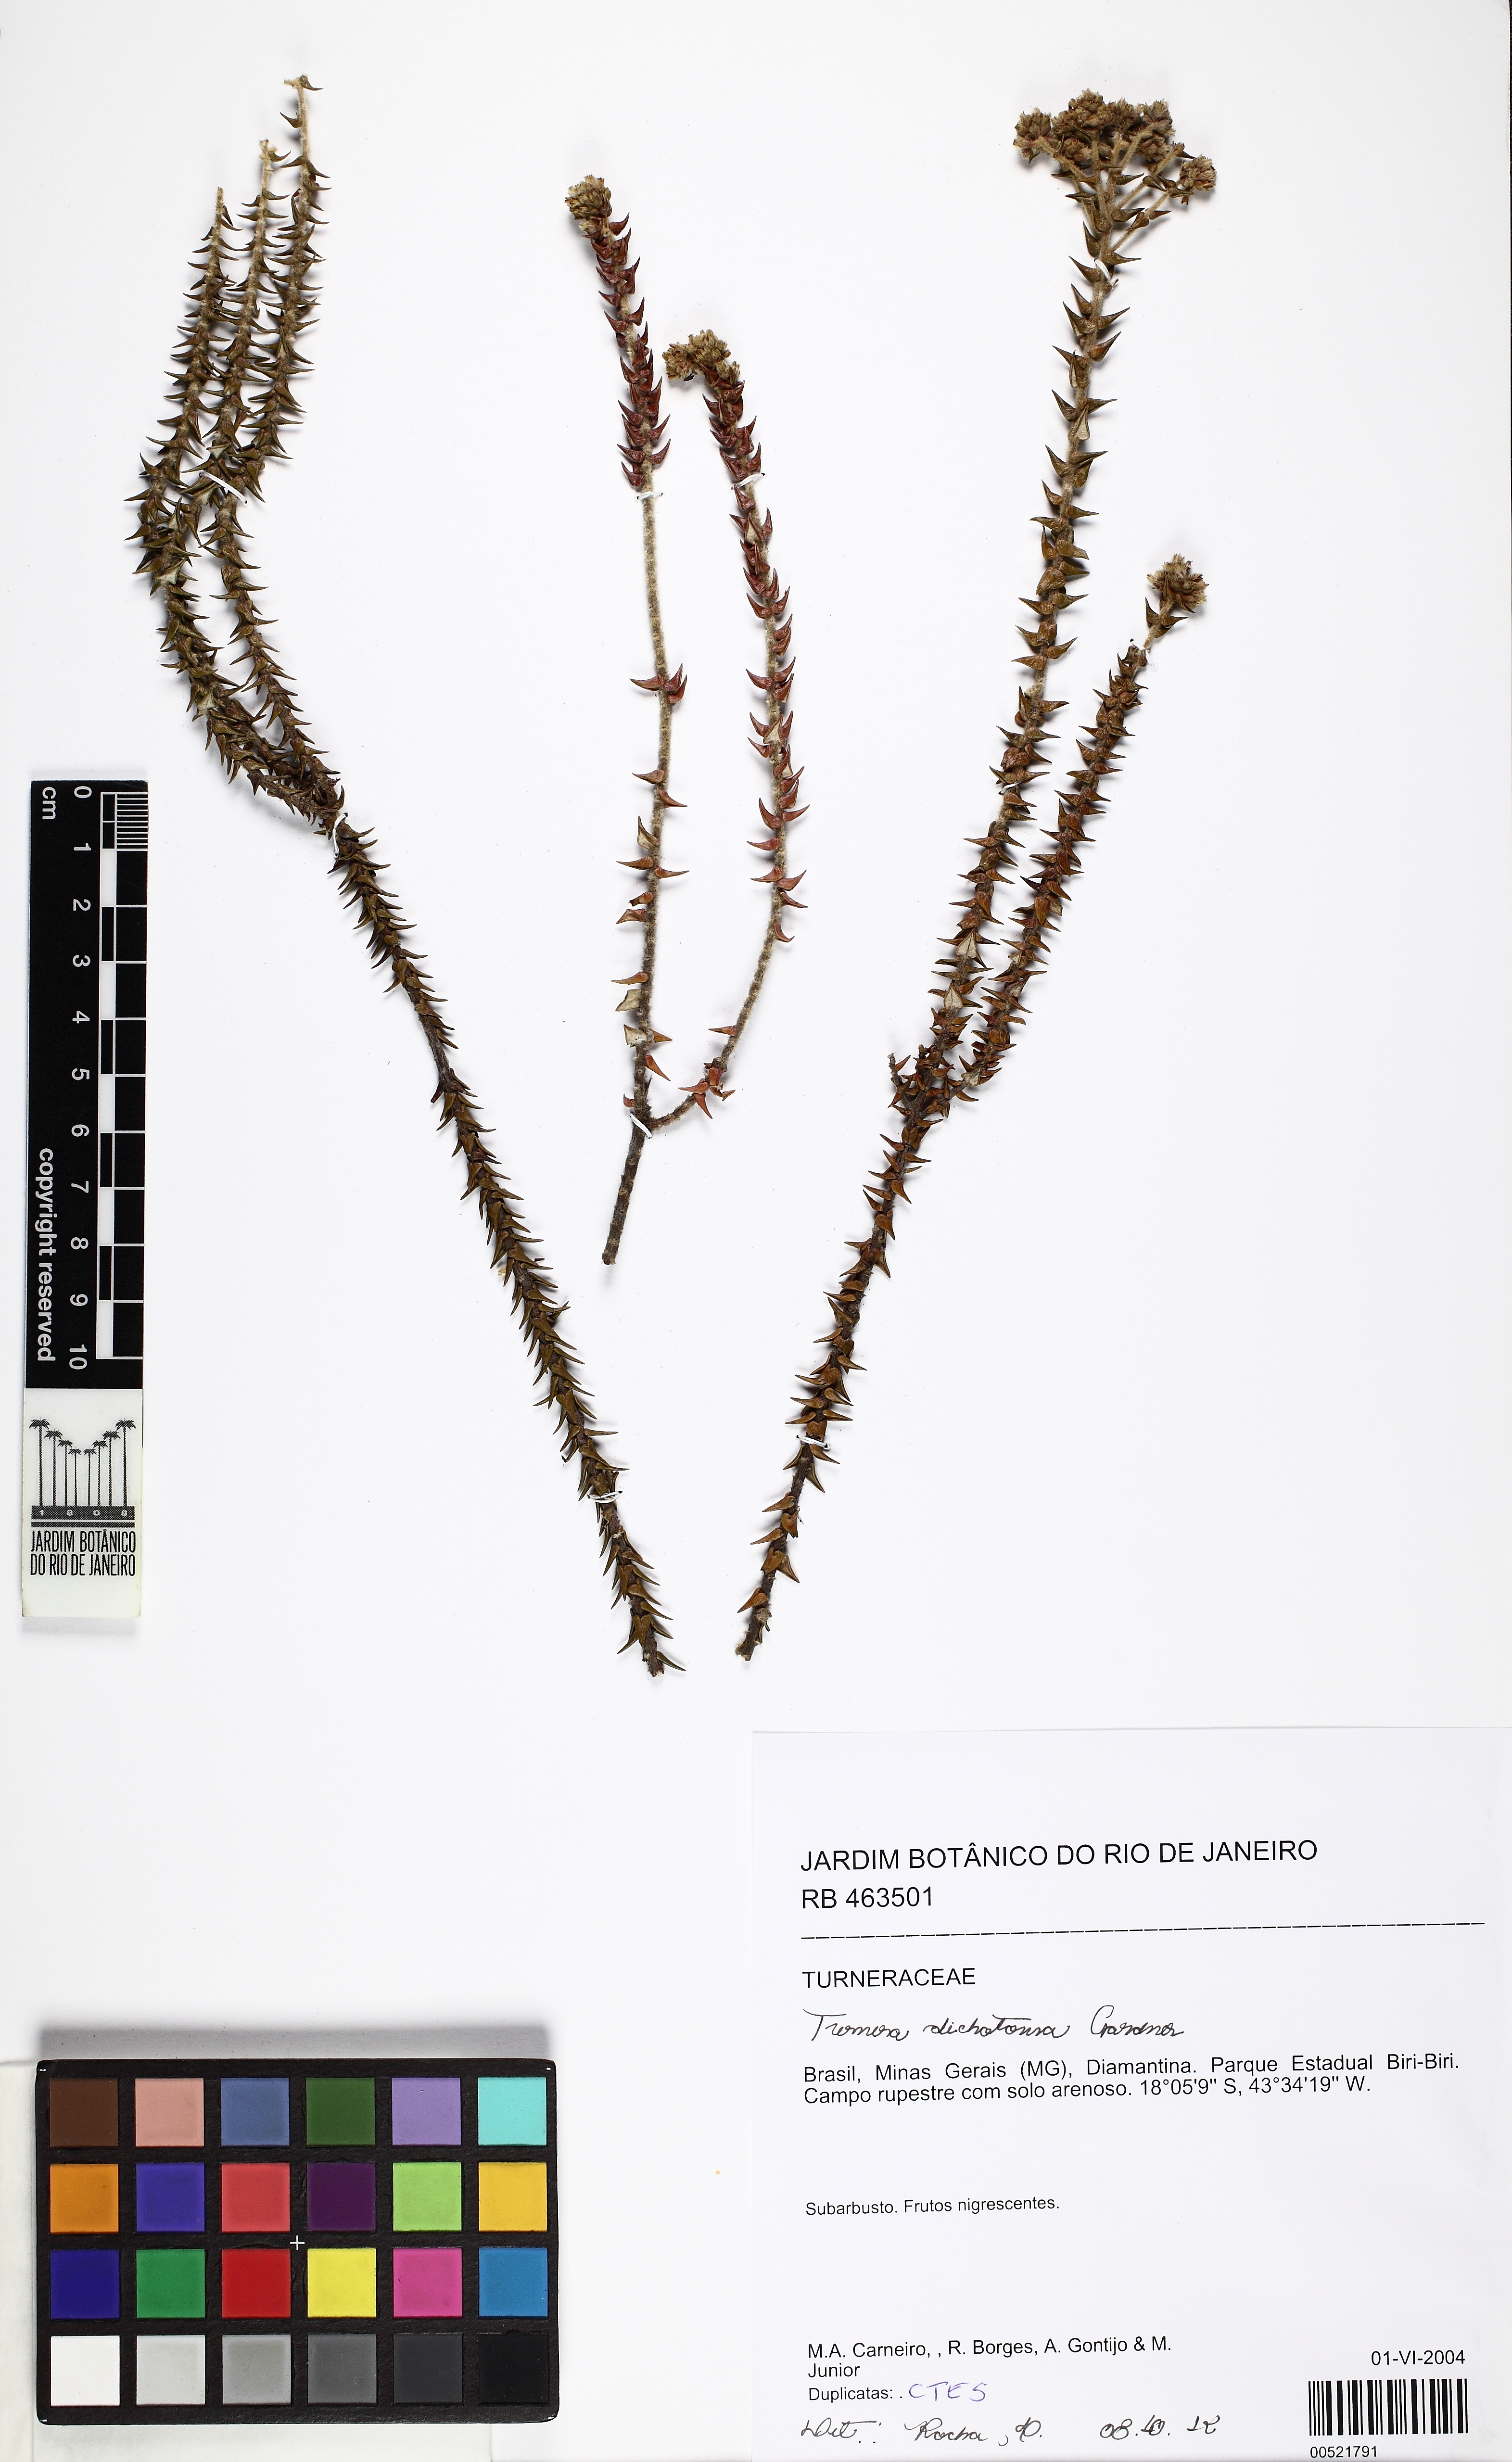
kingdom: Plantae
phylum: Tracheophyta
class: Magnoliopsida
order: Malpighiales
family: Turneraceae
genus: Turnera
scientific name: Turnera dichotoma
